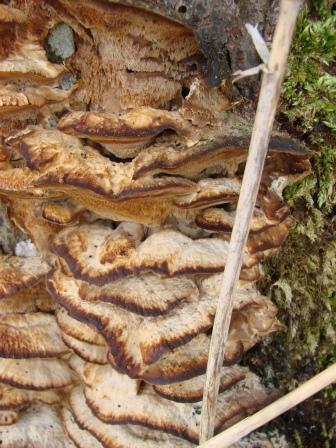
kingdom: Fungi
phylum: Basidiomycota
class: Agaricomycetes
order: Polyporales
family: Phanerochaetaceae
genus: Bjerkandera
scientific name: Bjerkandera fumosa
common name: grågul sodporesvamp
